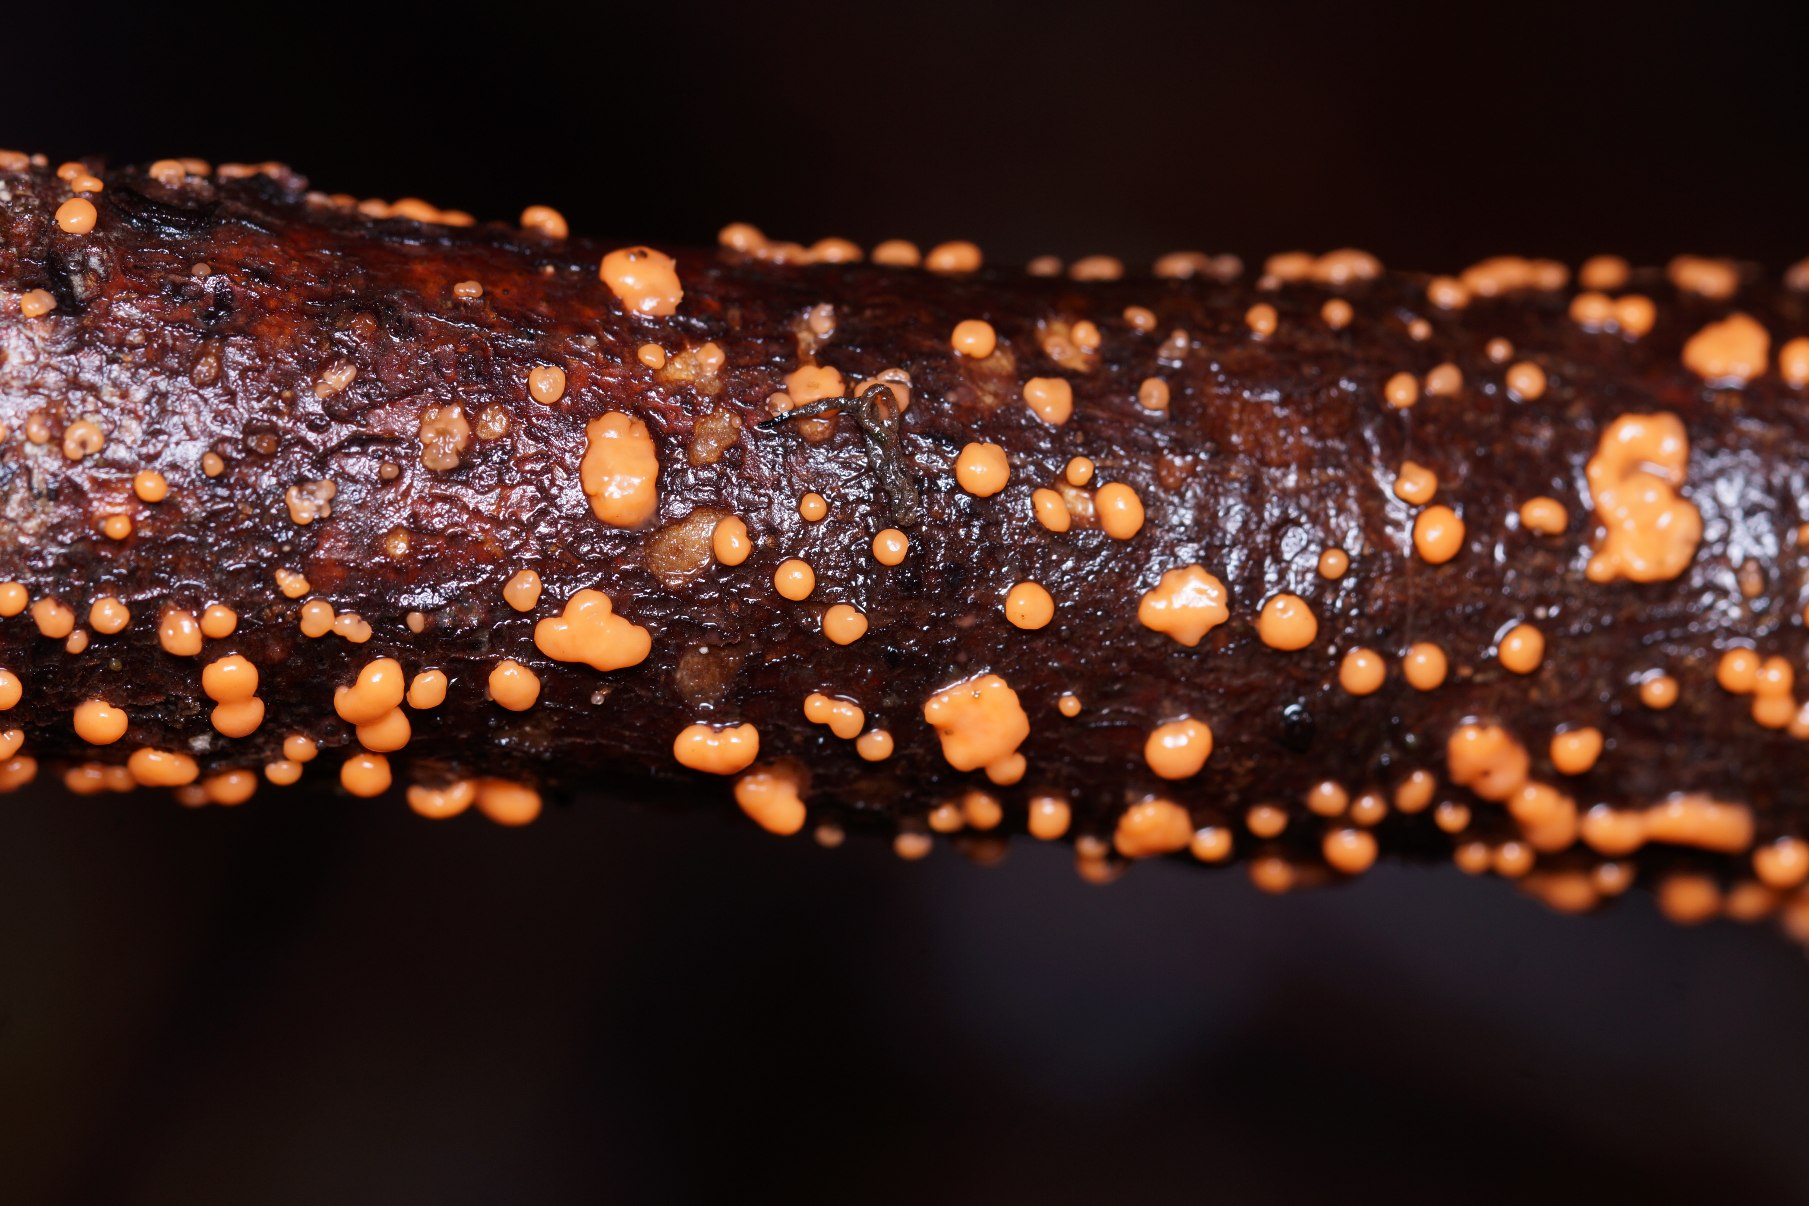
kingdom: Fungi
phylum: Ascomycota
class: Sordariomycetes
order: Hypocreales
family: Nectriaceae
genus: Nectria
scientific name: Nectria cinnabarina
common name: Almindelig cinnobersvamp
